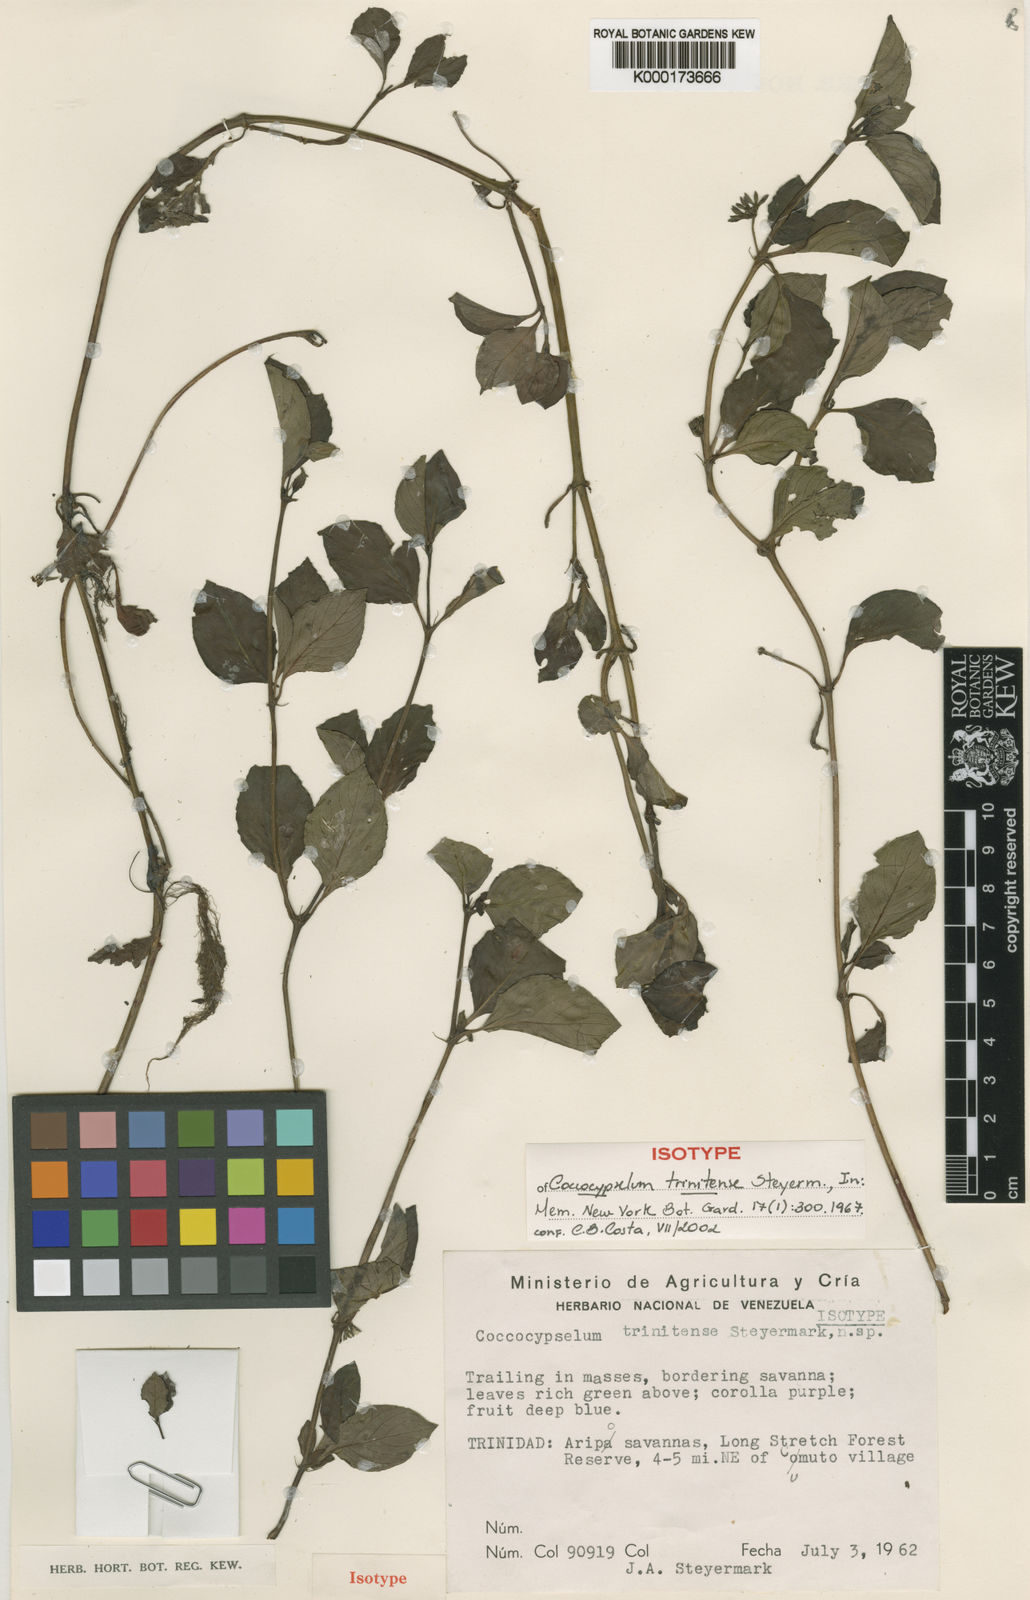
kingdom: Plantae
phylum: Tracheophyta
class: Magnoliopsida
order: Gentianales
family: Rubiaceae
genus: Coccocypselum
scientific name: Coccocypselum condalia
